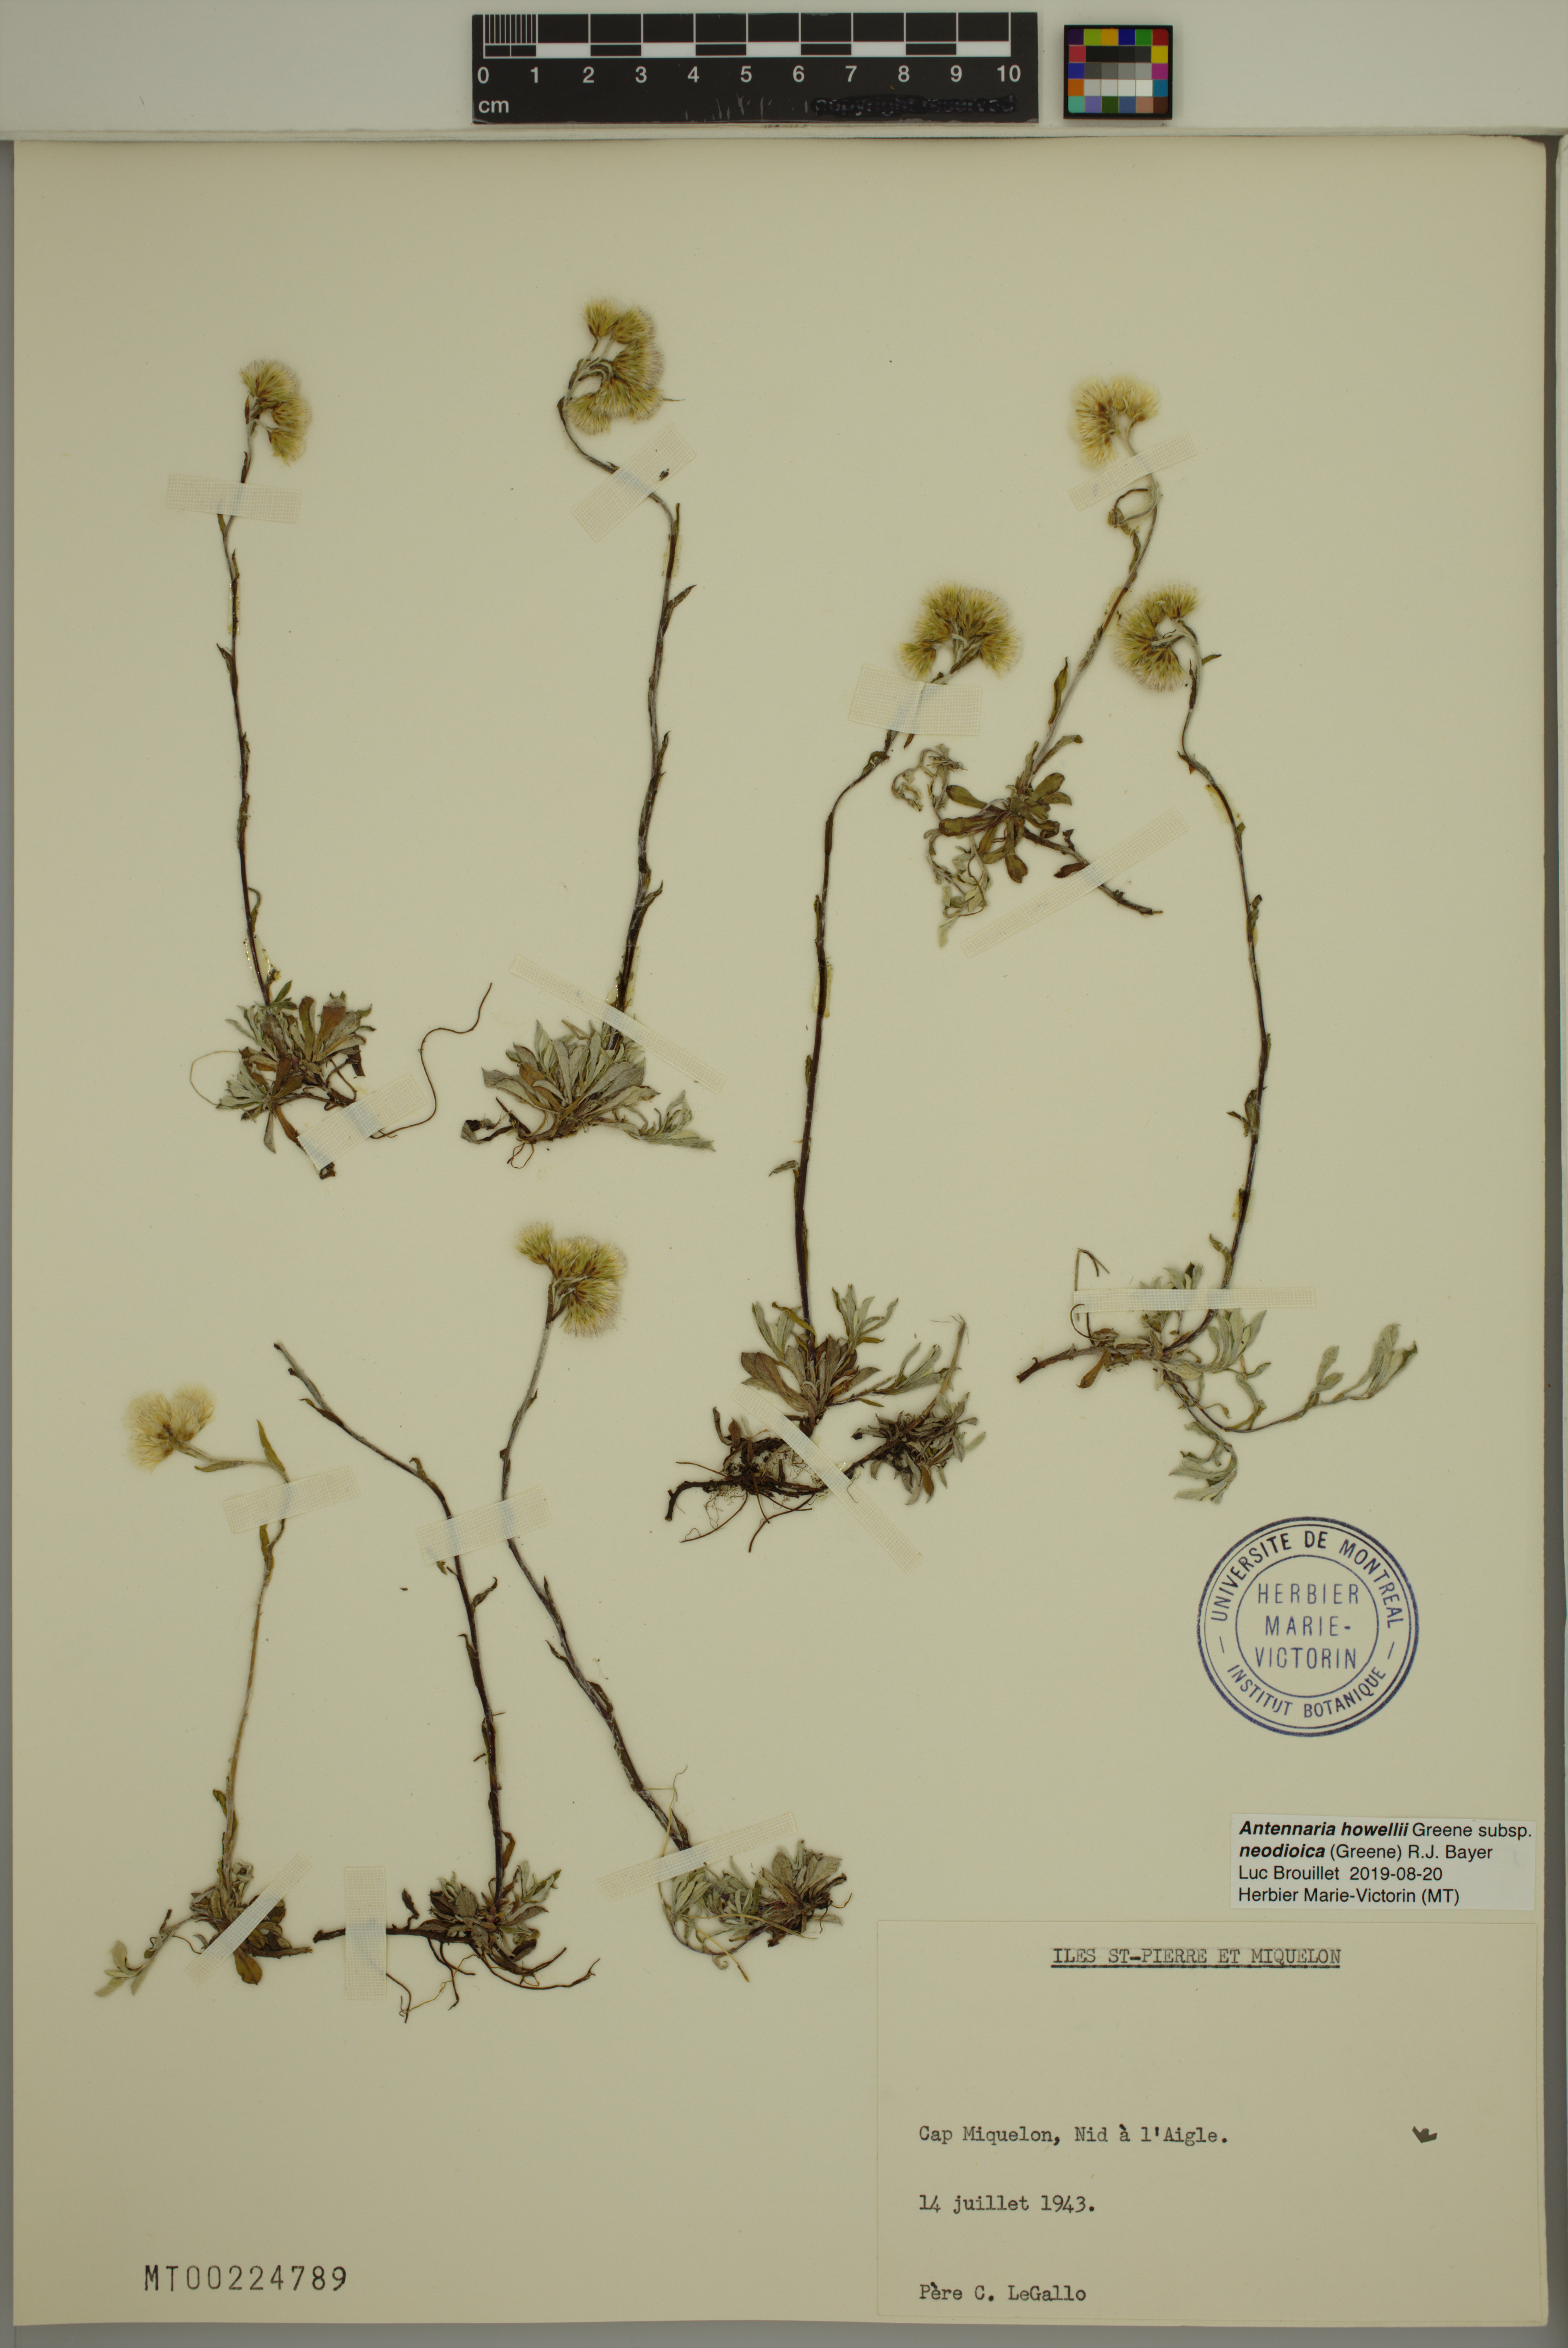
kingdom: Plantae
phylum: Tracheophyta
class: Magnoliopsida
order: Asterales
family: Asteraceae
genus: Antennaria
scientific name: Antennaria howellii
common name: Howell's pussytoes
